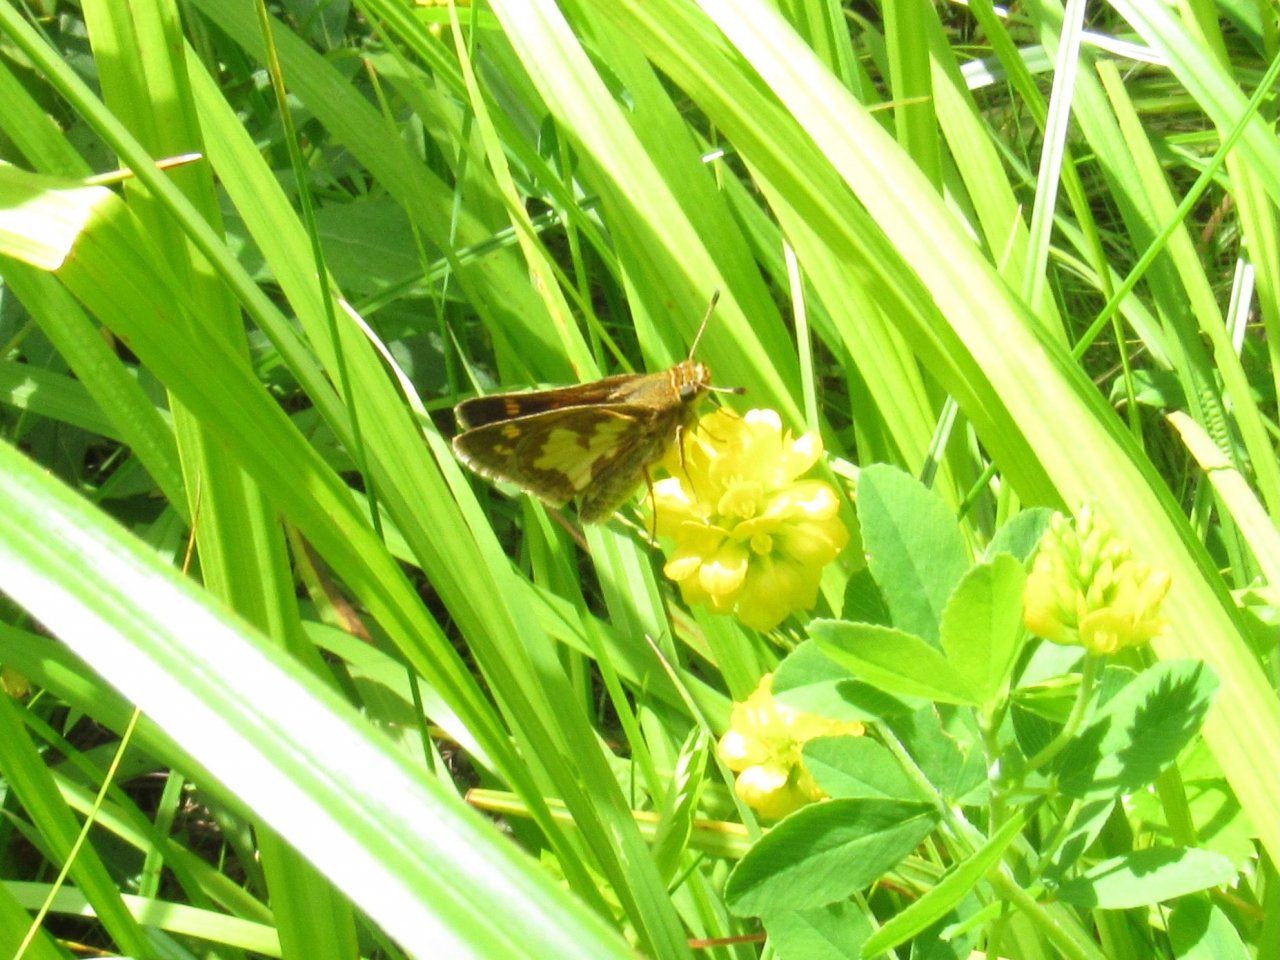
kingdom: Animalia
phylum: Arthropoda
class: Insecta
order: Lepidoptera
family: Hesperiidae
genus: Polites
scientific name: Polites coras
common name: Peck's Skipper
